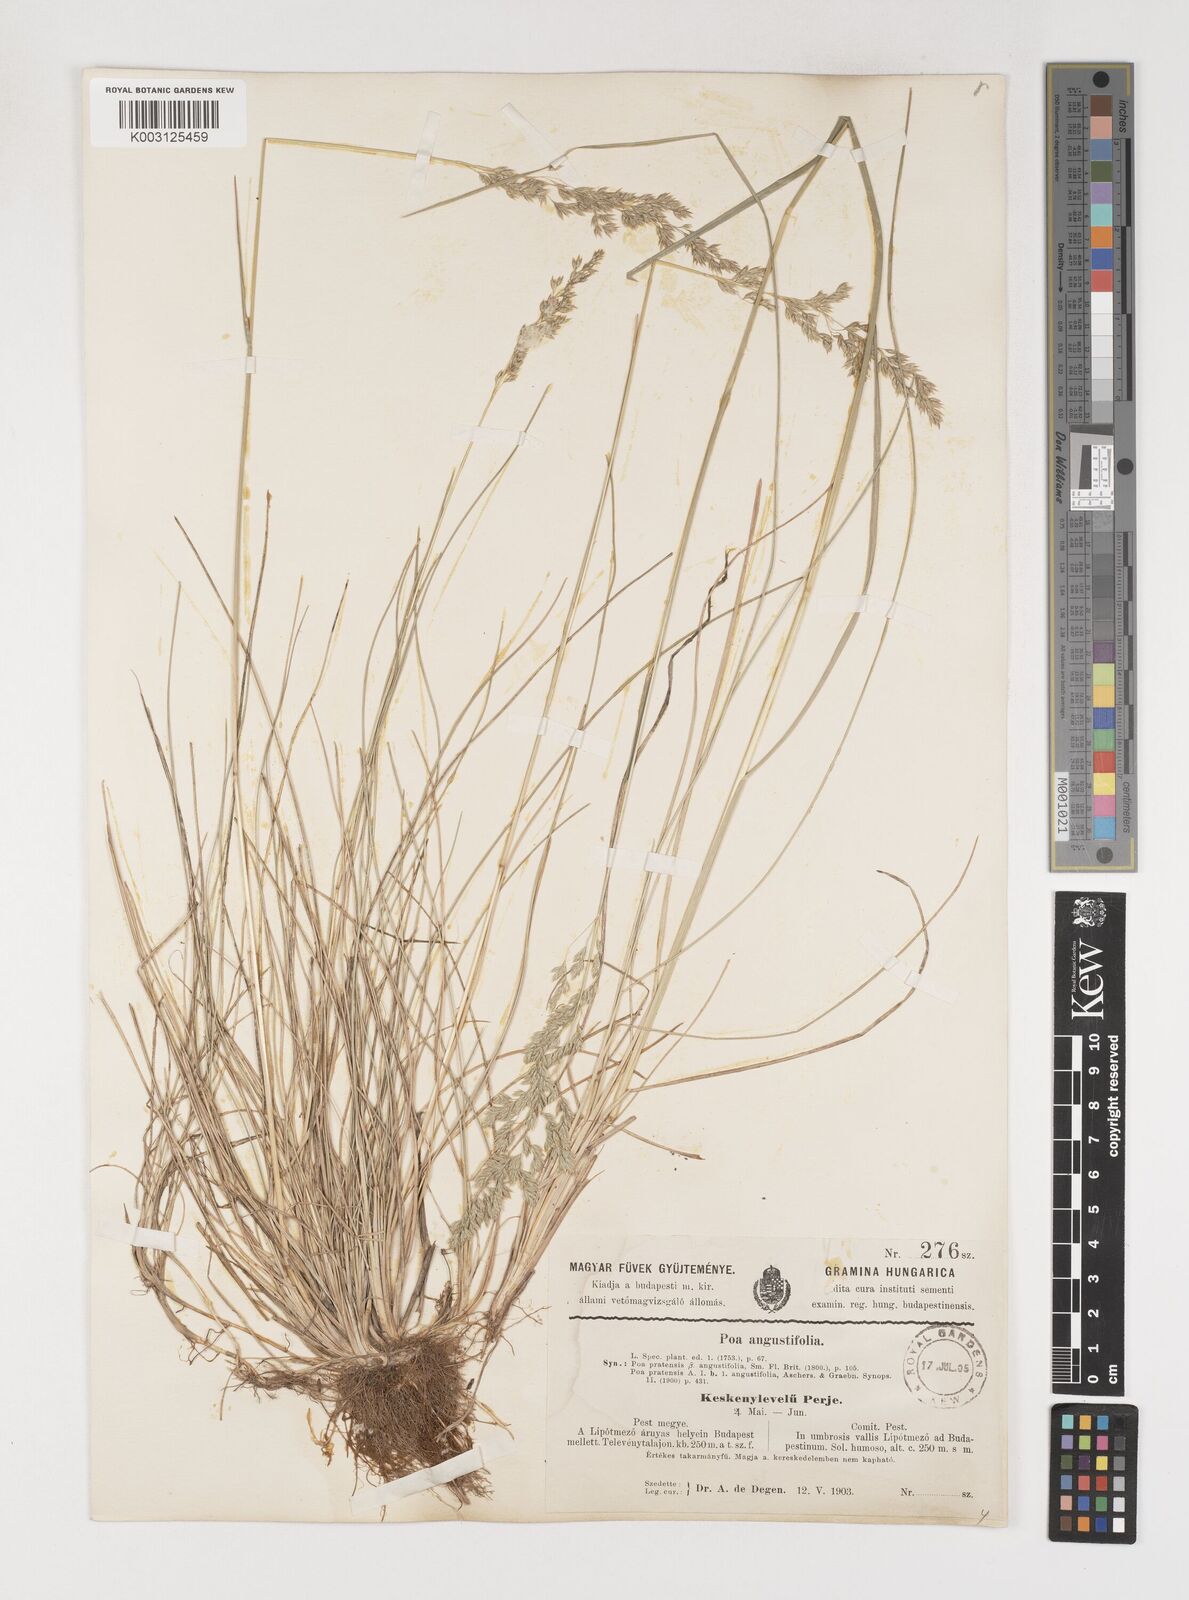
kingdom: Plantae
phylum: Tracheophyta
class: Liliopsida
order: Poales
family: Poaceae
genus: Poa
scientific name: Poa angustifolia
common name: Narrow-leaved meadow-grass
